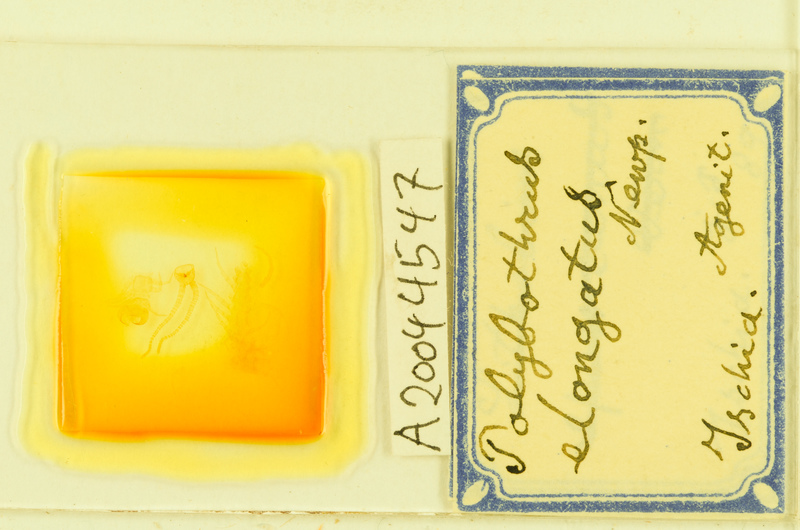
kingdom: Animalia
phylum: Arthropoda
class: Chilopoda
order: Lithobiomorpha
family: Lithobiidae
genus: Polybothrus
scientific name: Polybothrus
